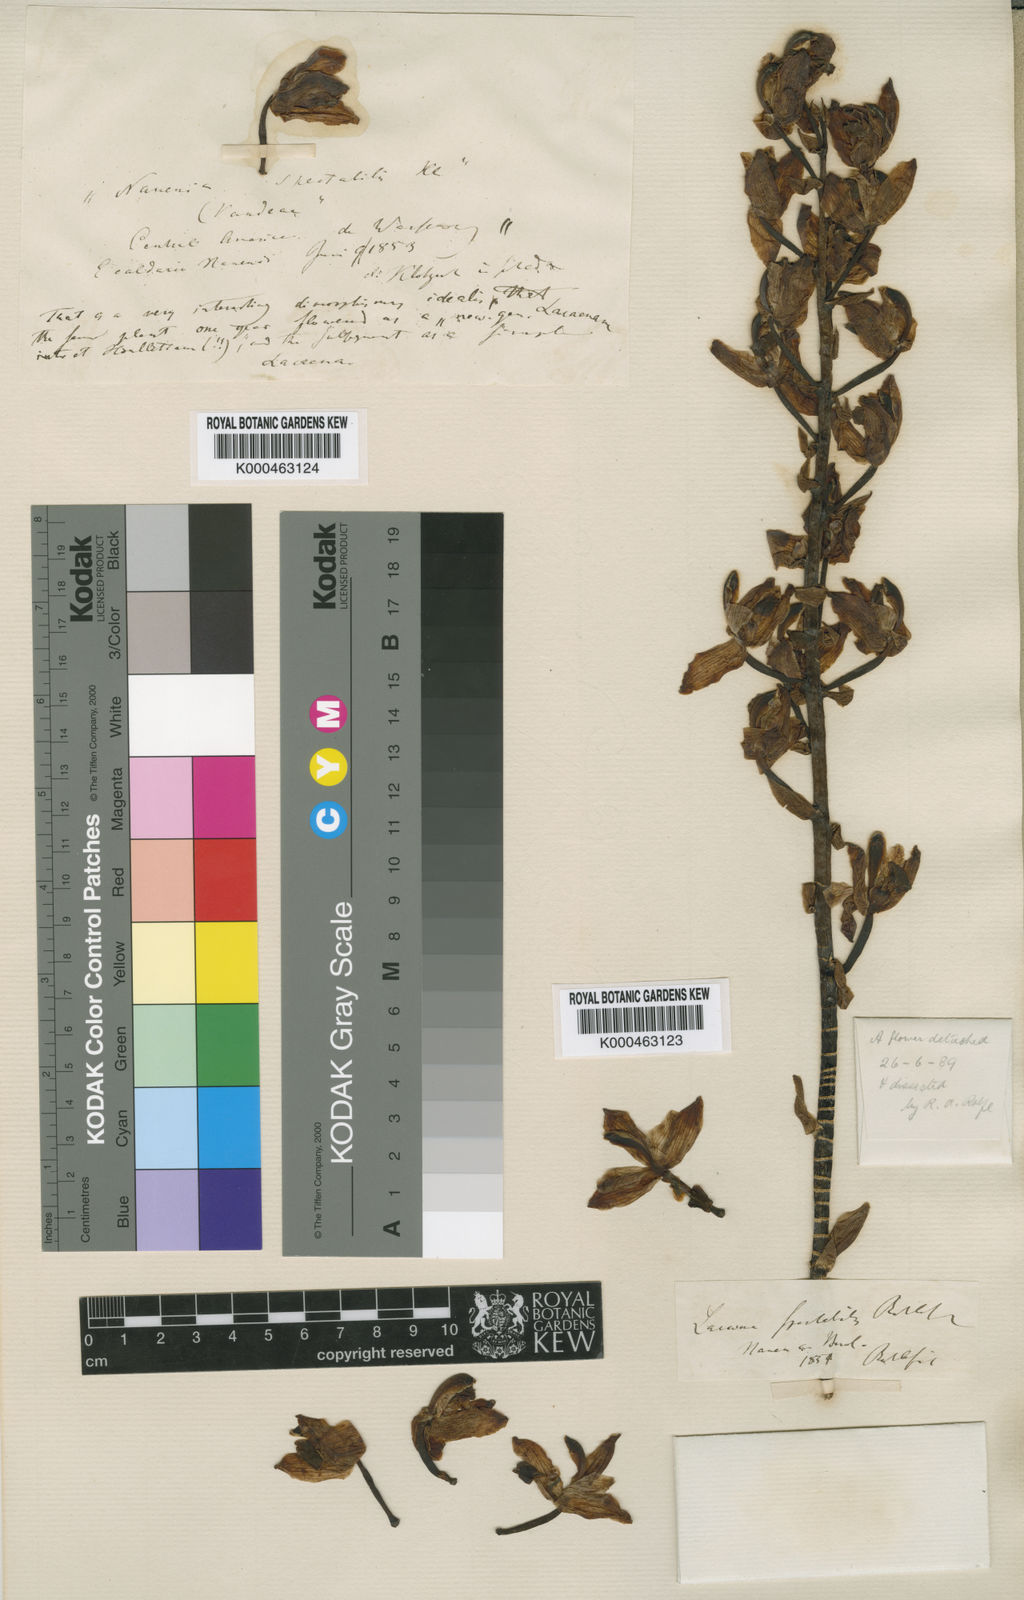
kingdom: Plantae
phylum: Tracheophyta
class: Liliopsida
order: Asparagales
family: Orchidaceae
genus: Lacaena
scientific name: Lacaena spectabilis
